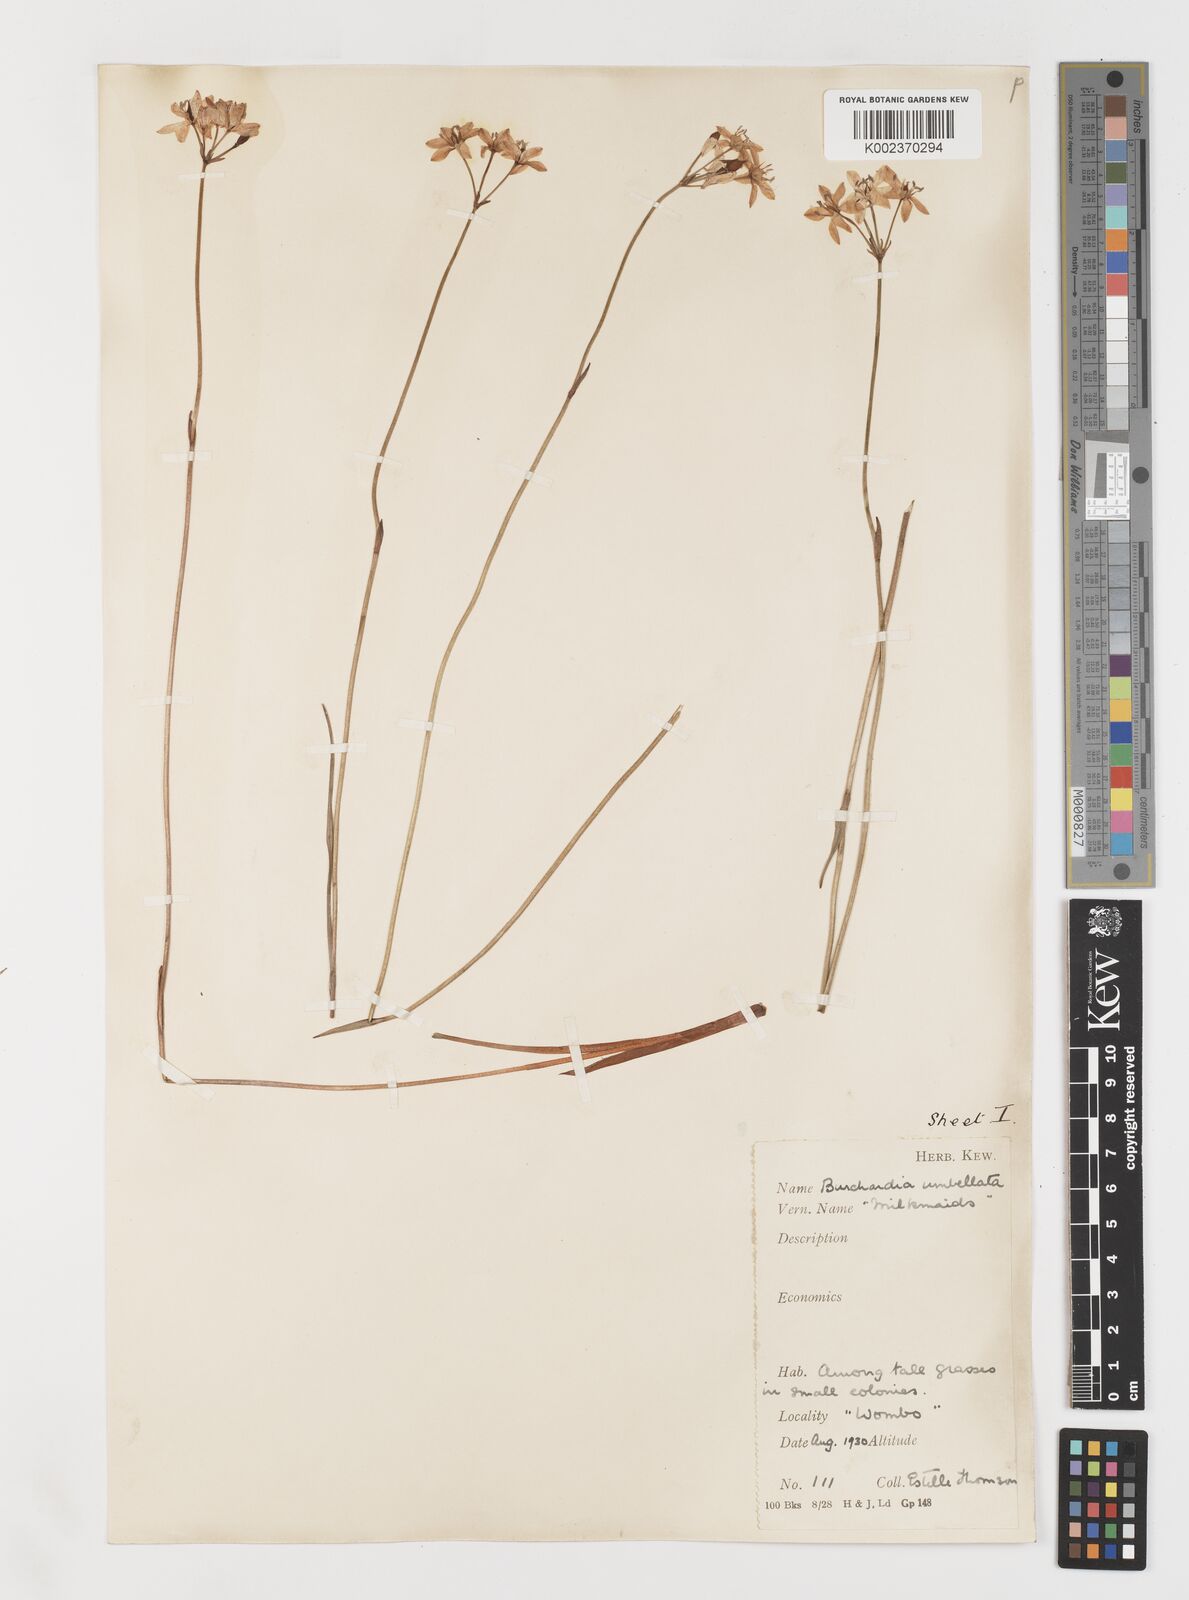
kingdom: Plantae
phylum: Tracheophyta
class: Liliopsida
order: Liliales
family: Colchicaceae
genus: Burchardia
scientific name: Burchardia umbellata
